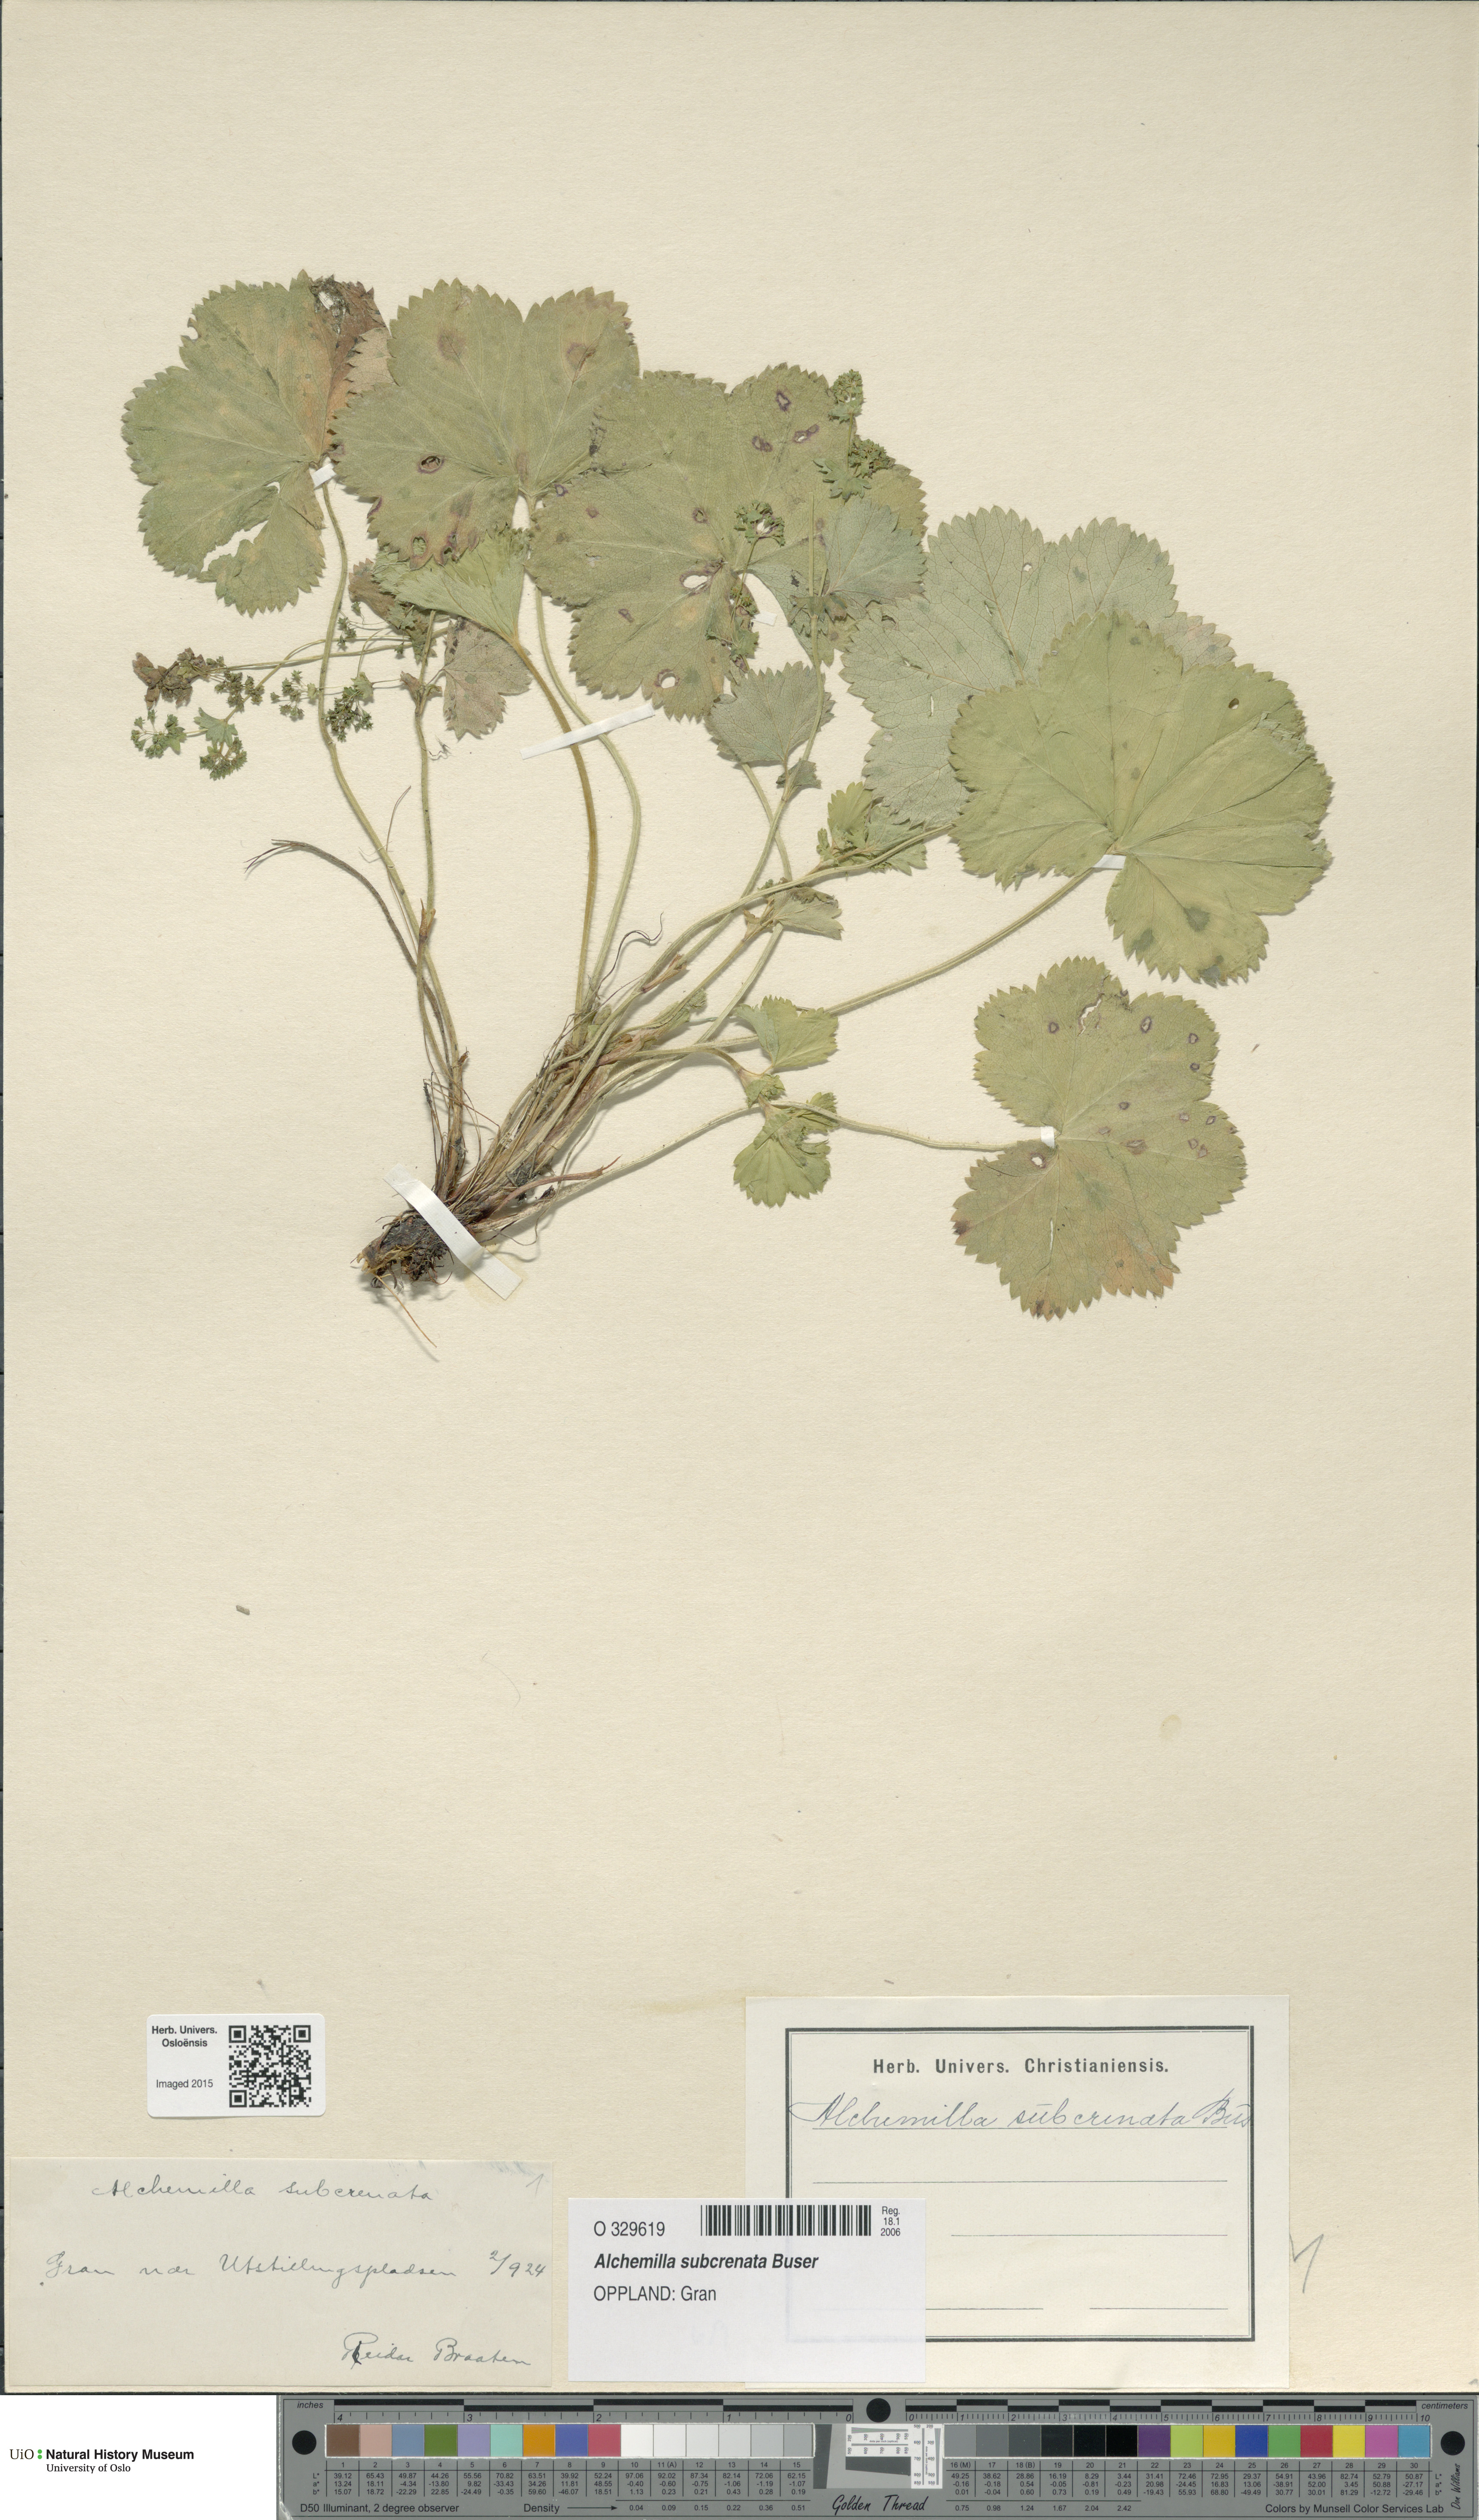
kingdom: Plantae
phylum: Tracheophyta
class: Magnoliopsida
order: Rosales
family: Rosaceae
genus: Alchemilla
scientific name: Alchemilla subcrenata
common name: Broadtooth lady's mantle
